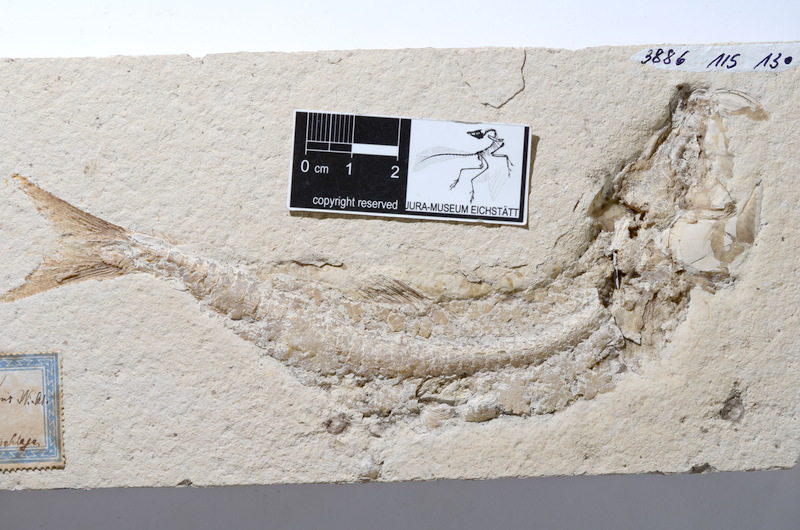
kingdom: Animalia
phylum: Chordata
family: Ascalaboidae
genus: Tharsis
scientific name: Tharsis dubius
